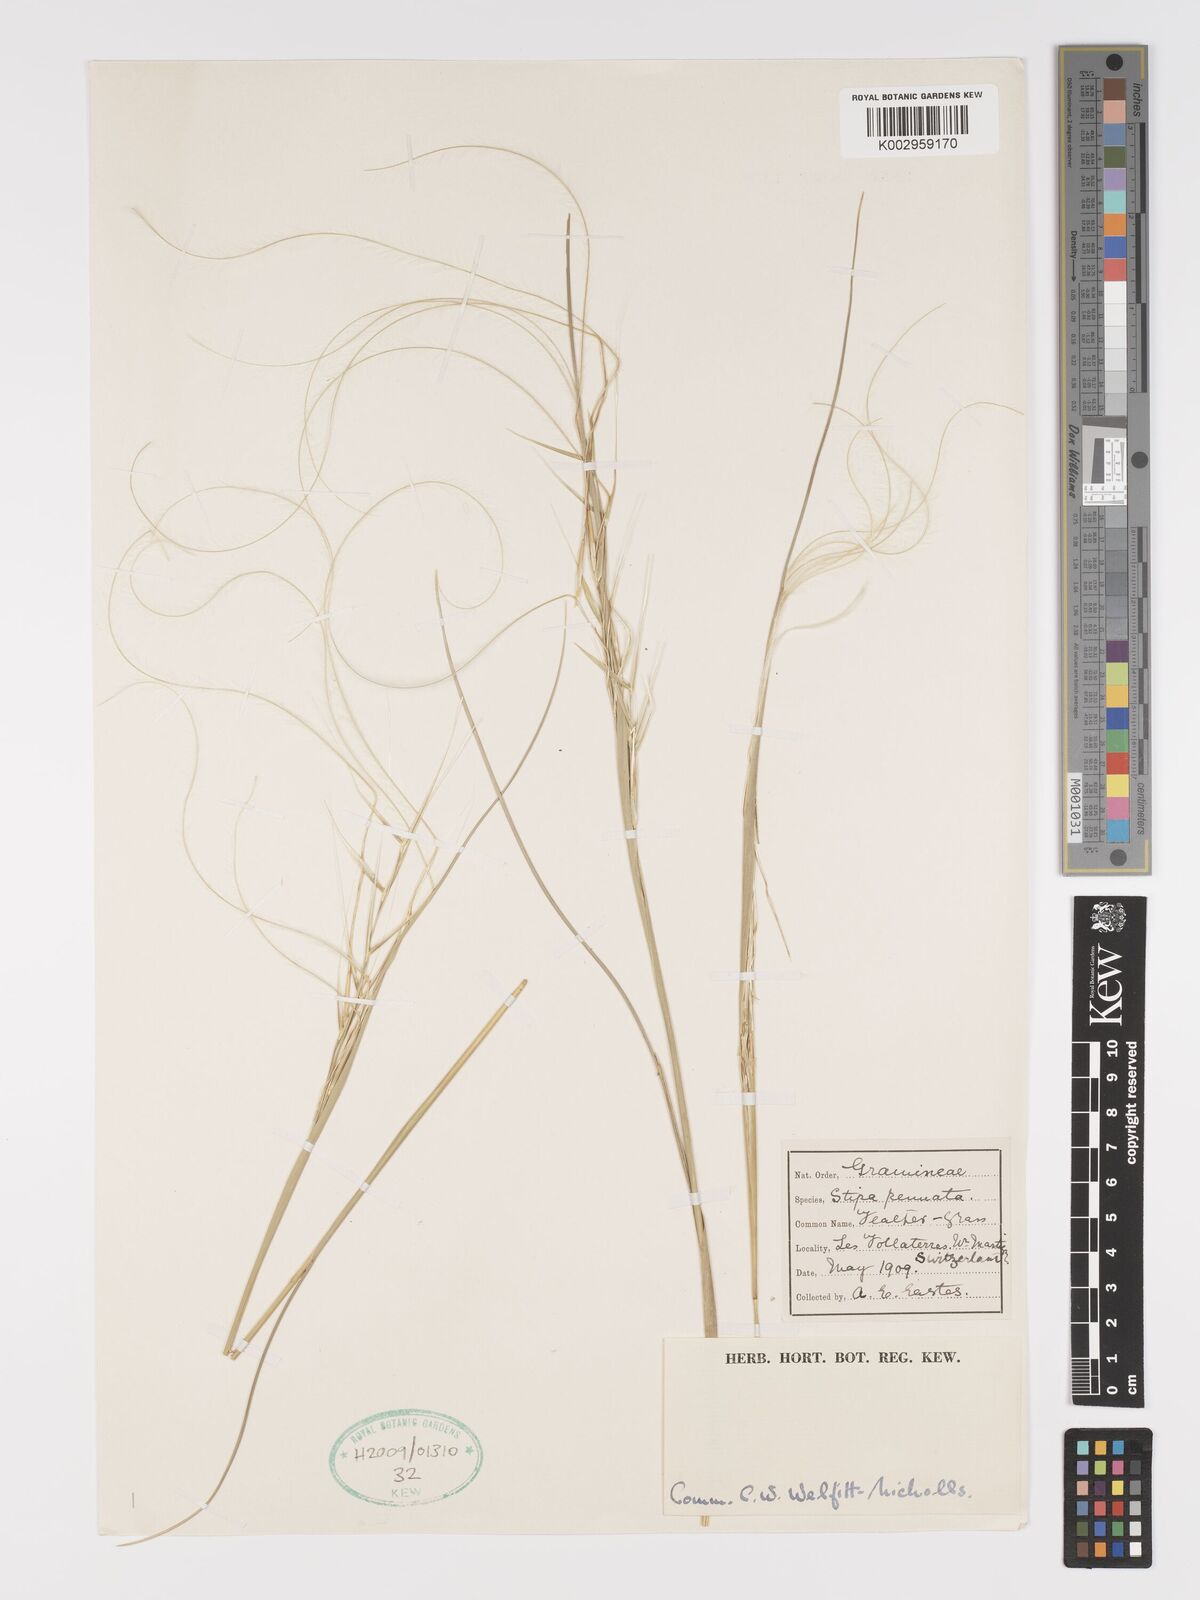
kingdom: Plantae
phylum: Tracheophyta
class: Liliopsida
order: Poales
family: Poaceae
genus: Stipa
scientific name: Stipa pennata
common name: European feather grass
